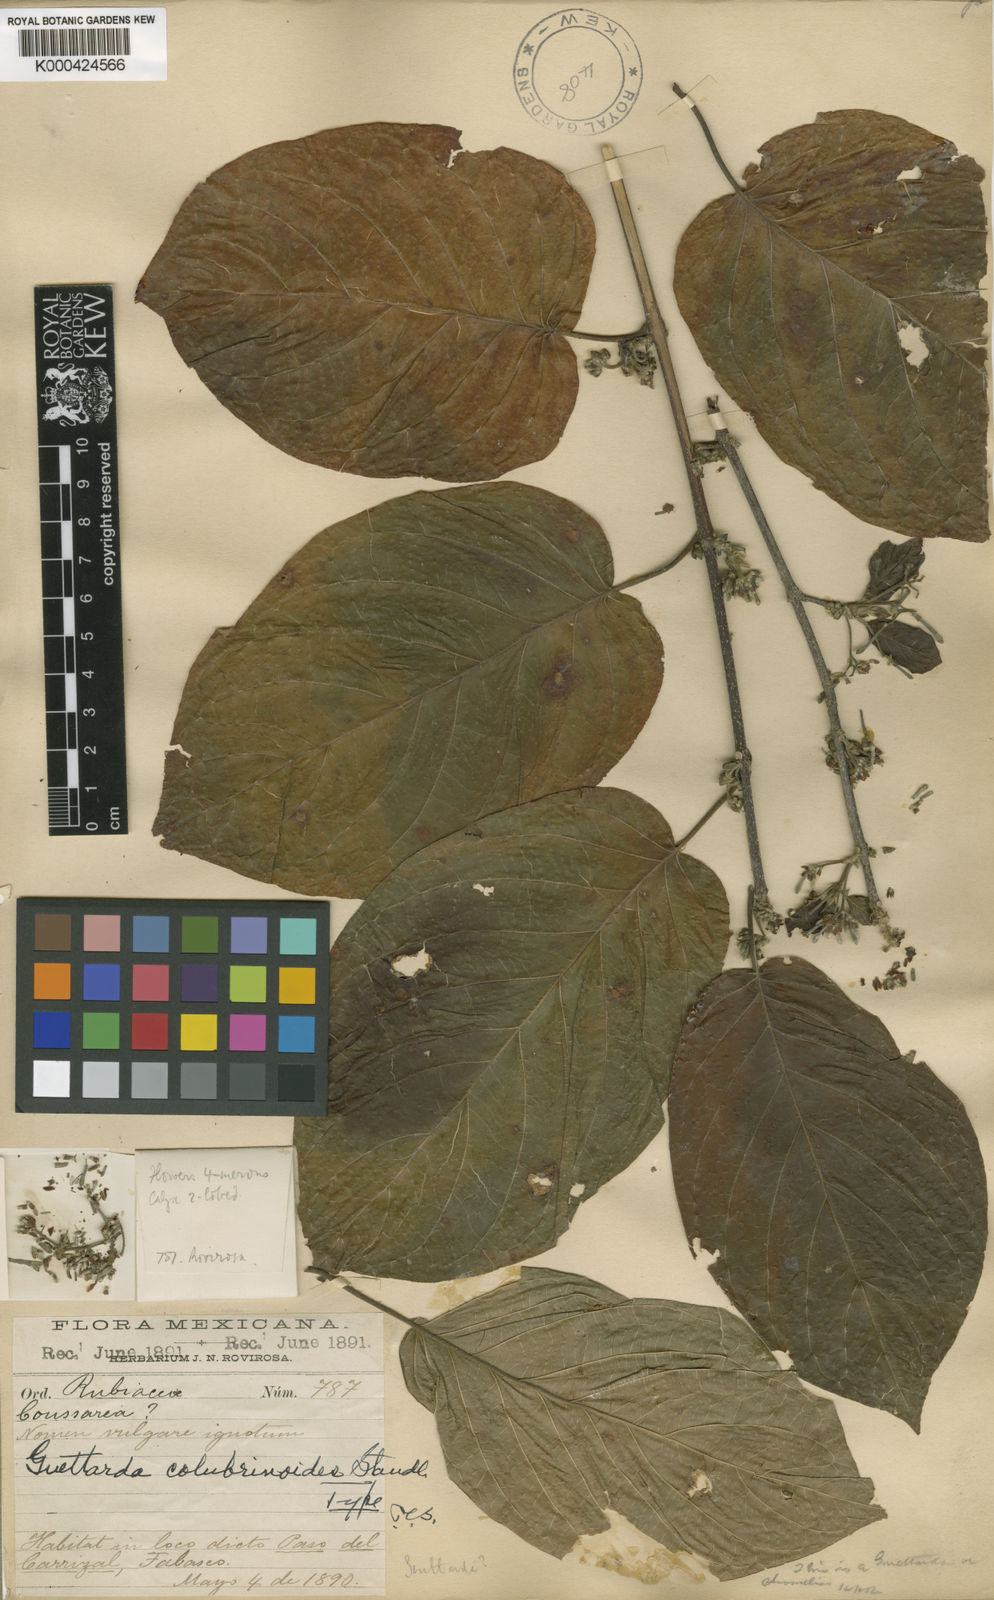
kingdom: Plantae
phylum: Tracheophyta
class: Magnoliopsida
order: Gentianales
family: Rubiaceae
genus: Guettarda
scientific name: Guettarda colubrinoides
